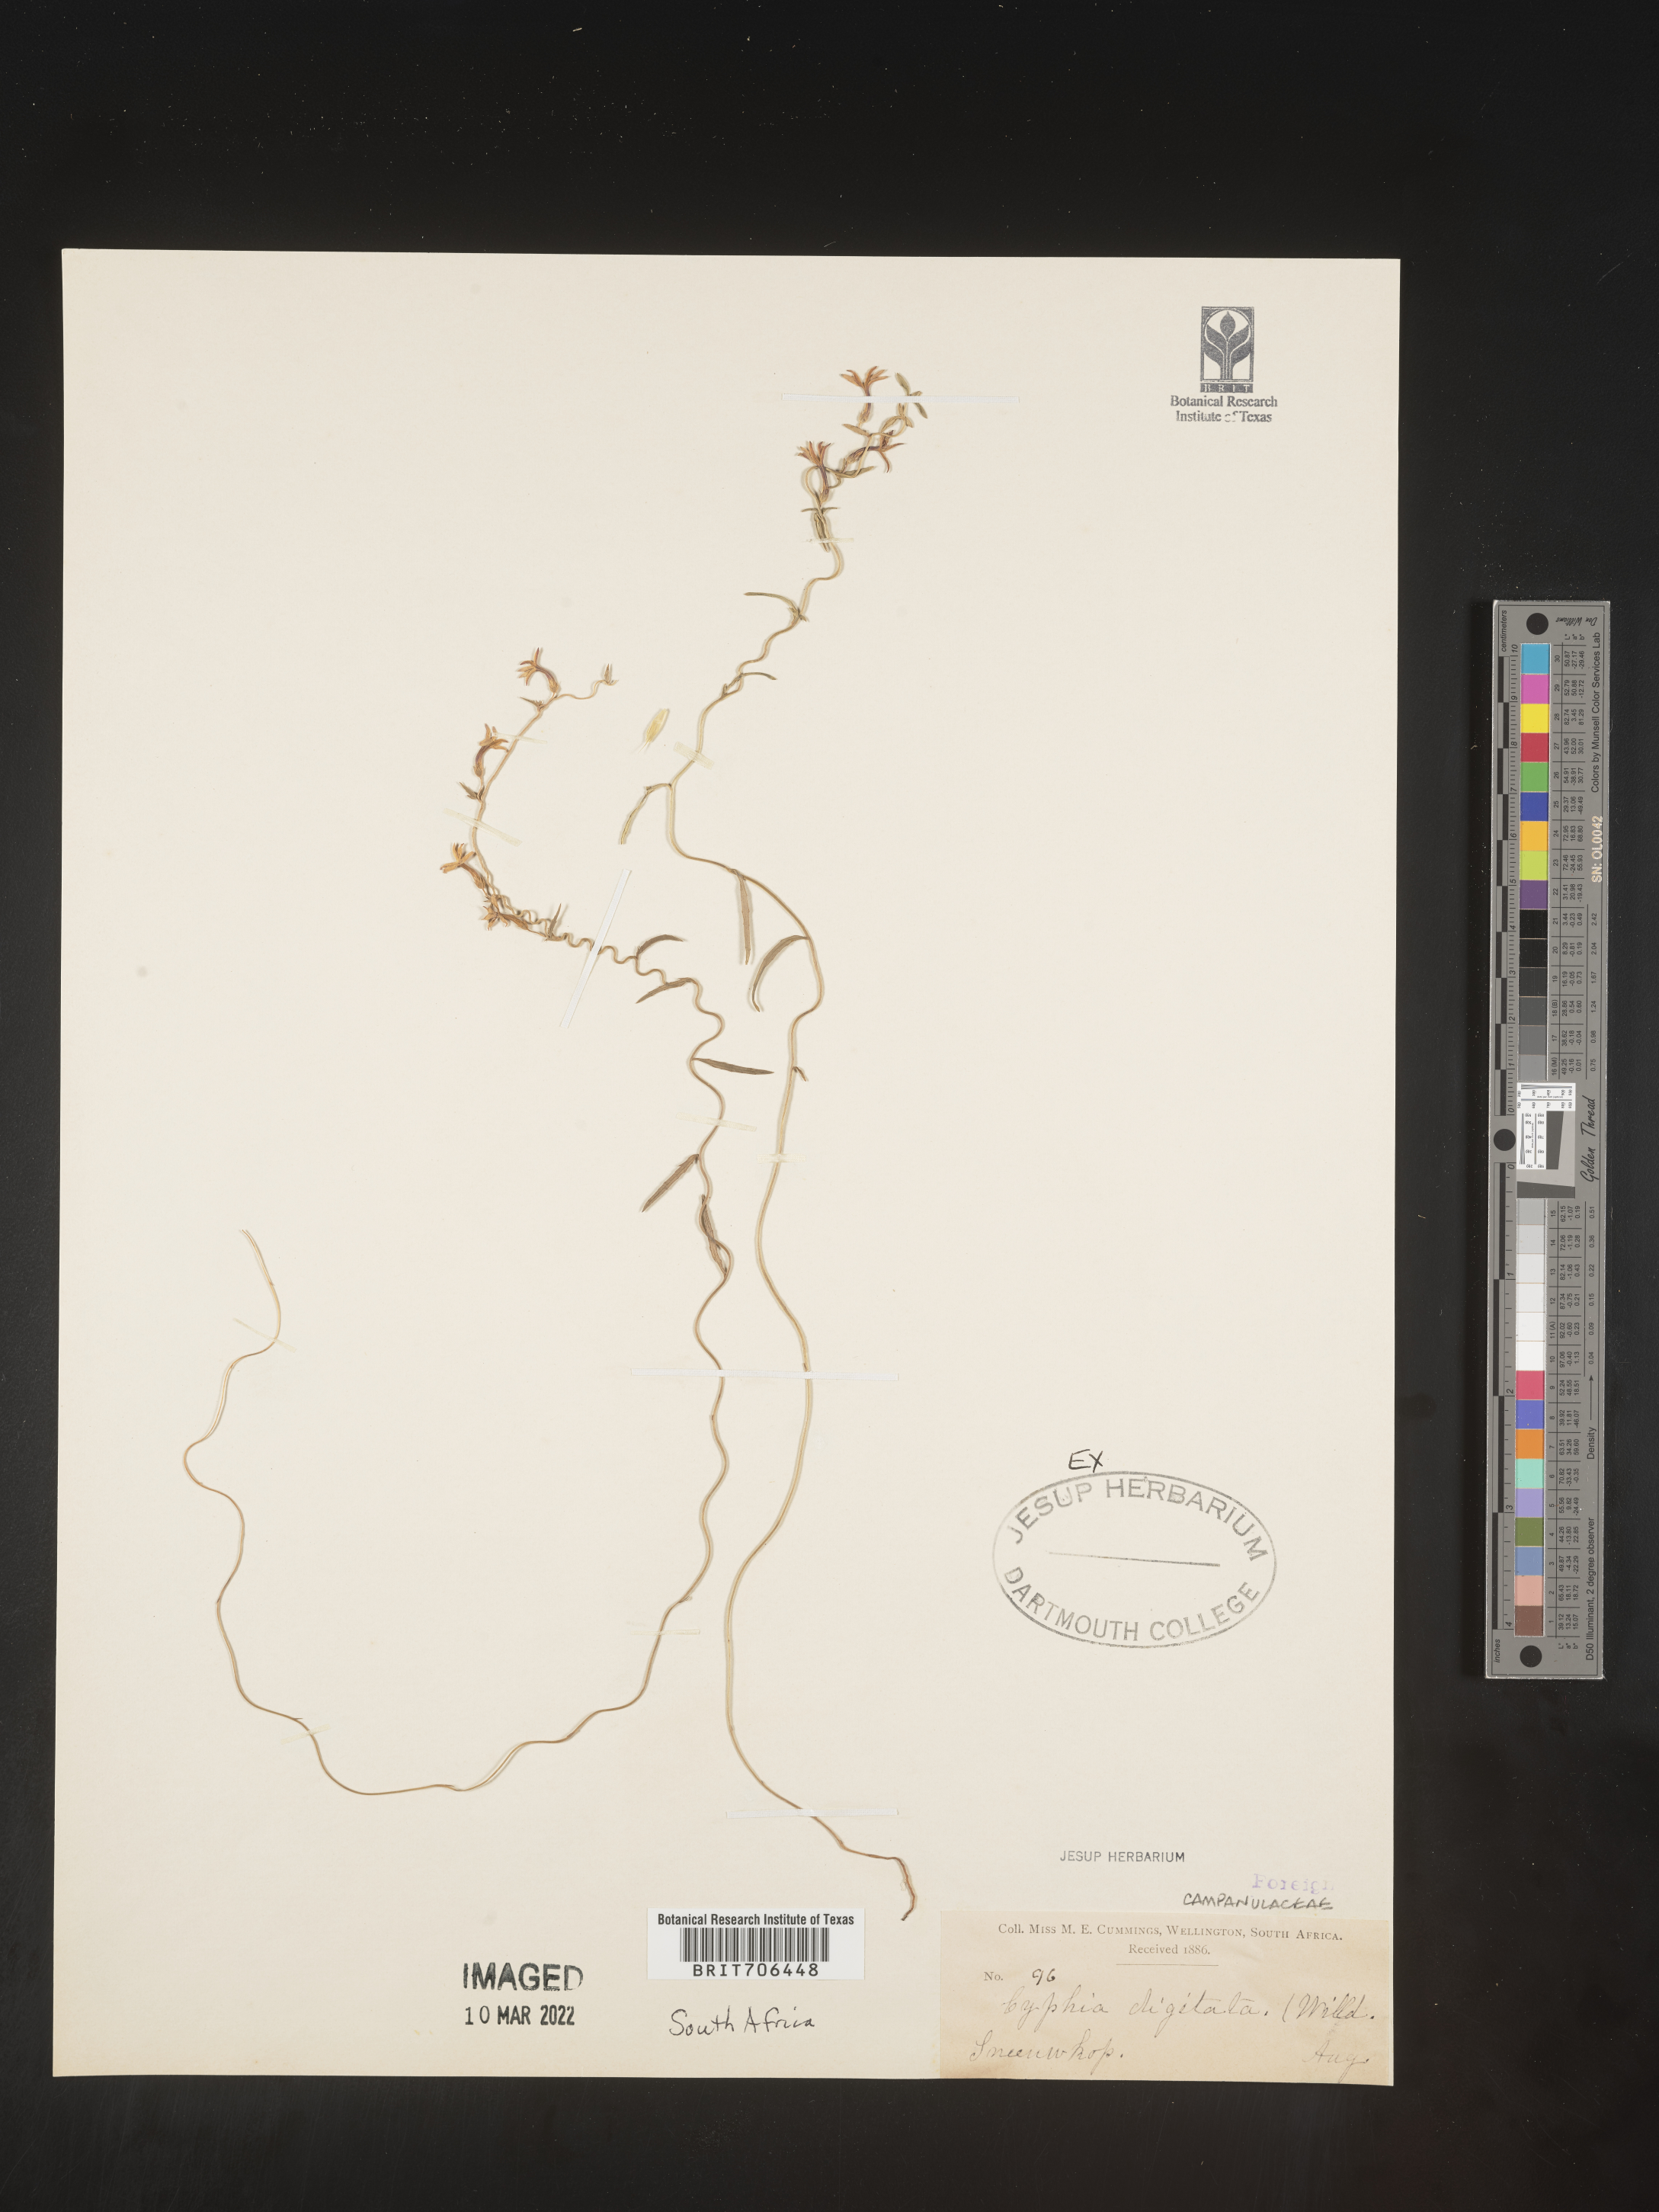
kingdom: Plantae
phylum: Tracheophyta
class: Magnoliopsida
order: Asterales
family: Campanulaceae
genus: Cyphia
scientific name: Cyphia
